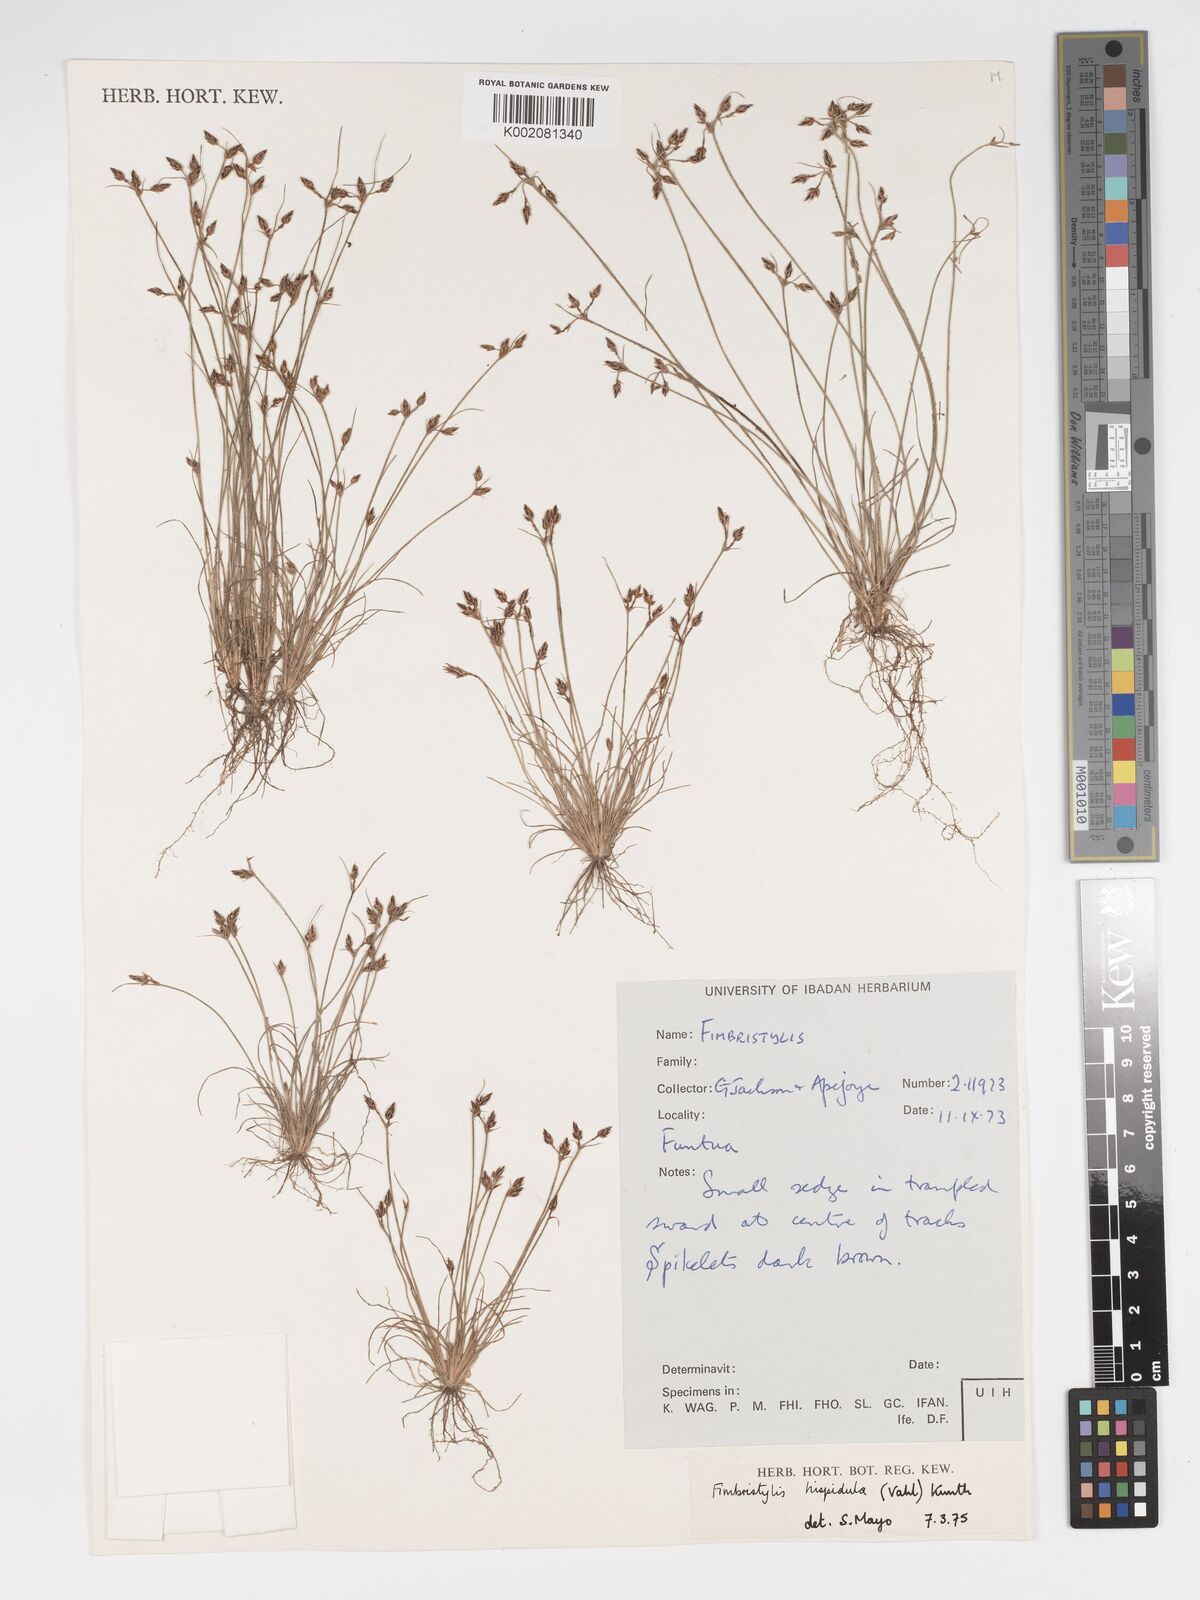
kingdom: Plantae
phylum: Tracheophyta
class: Liliopsida
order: Poales
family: Cyperaceae
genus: Bulbostylis
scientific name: Bulbostylis hispidula
